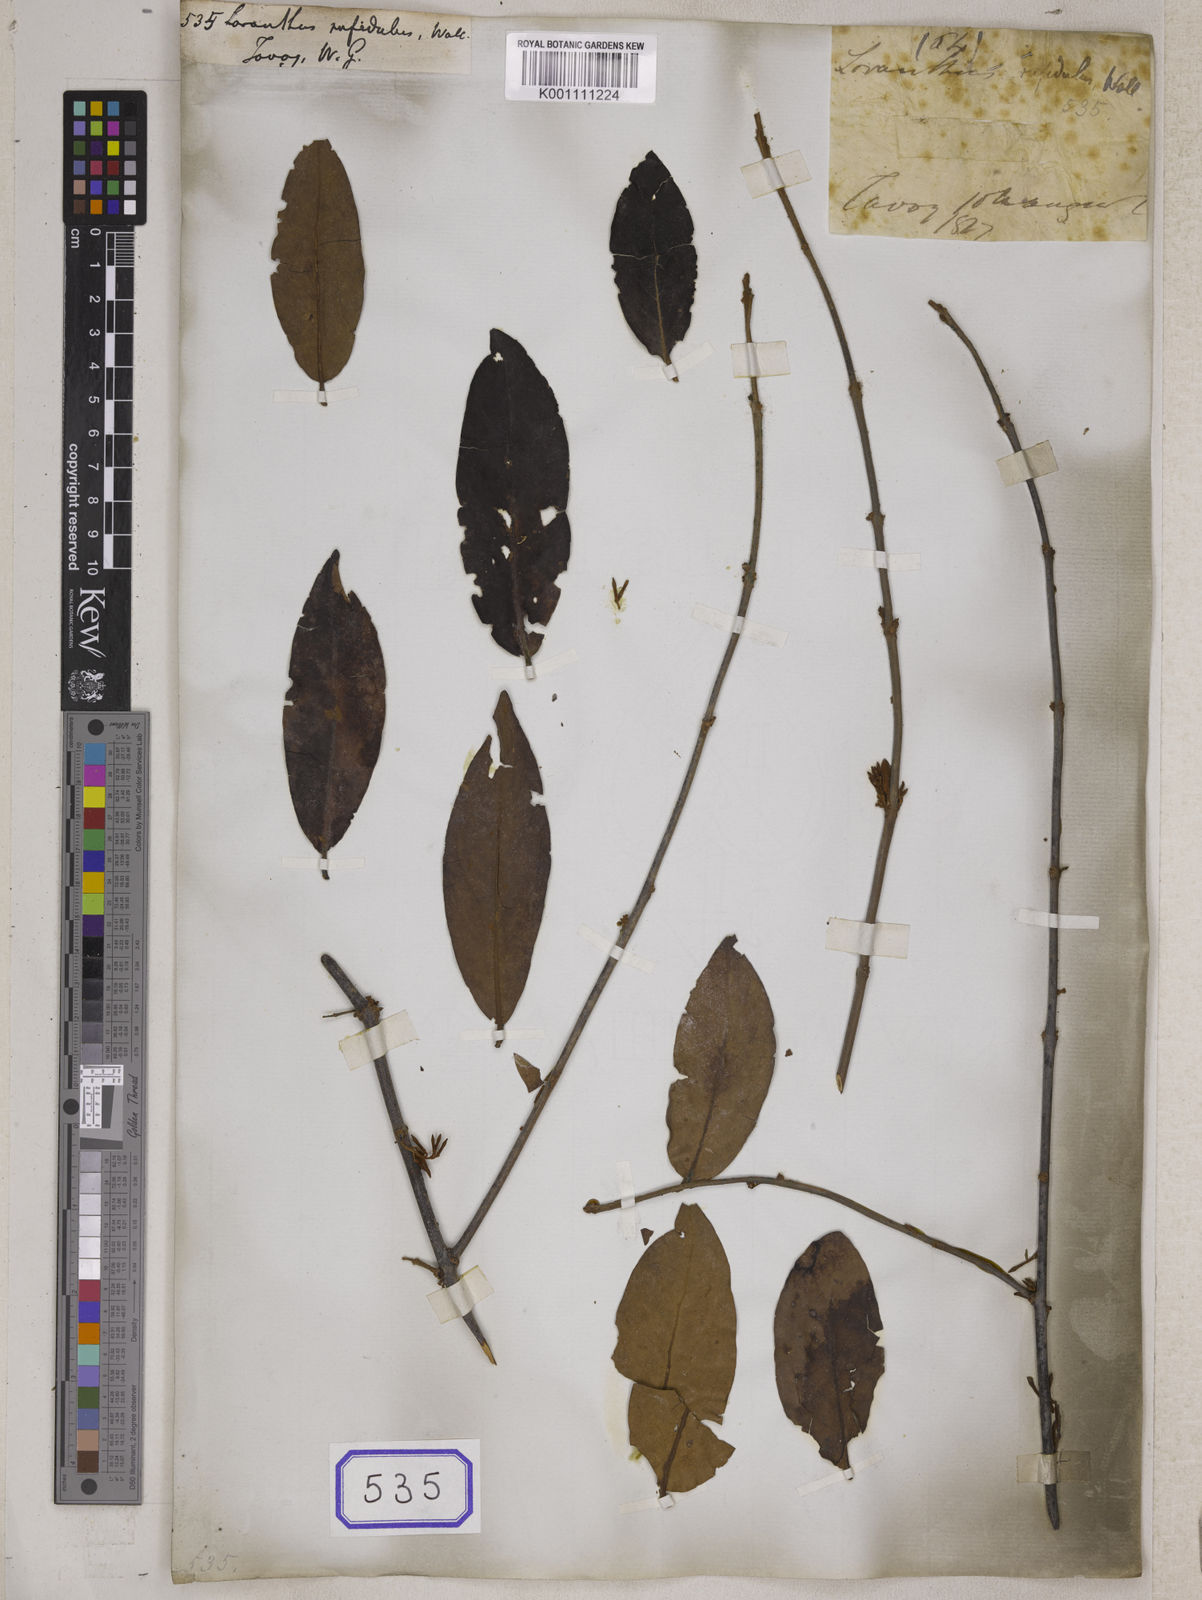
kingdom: Plantae
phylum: Tracheophyta
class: Magnoliopsida
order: Santalales
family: Loranthaceae
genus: Scurrula
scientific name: Scurrula parasitica
